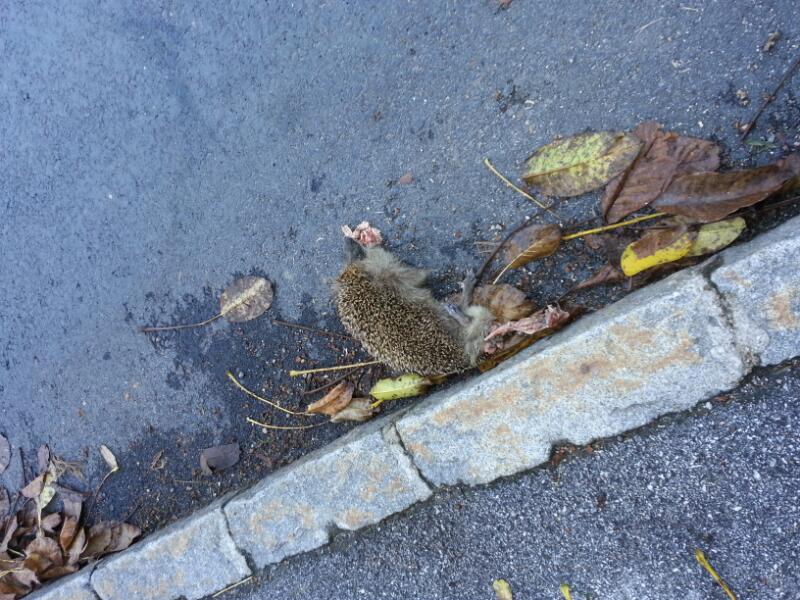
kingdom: Animalia
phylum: Chordata
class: Mammalia
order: Erinaceomorpha
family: Erinaceidae
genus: Erinaceus
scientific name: Erinaceus
